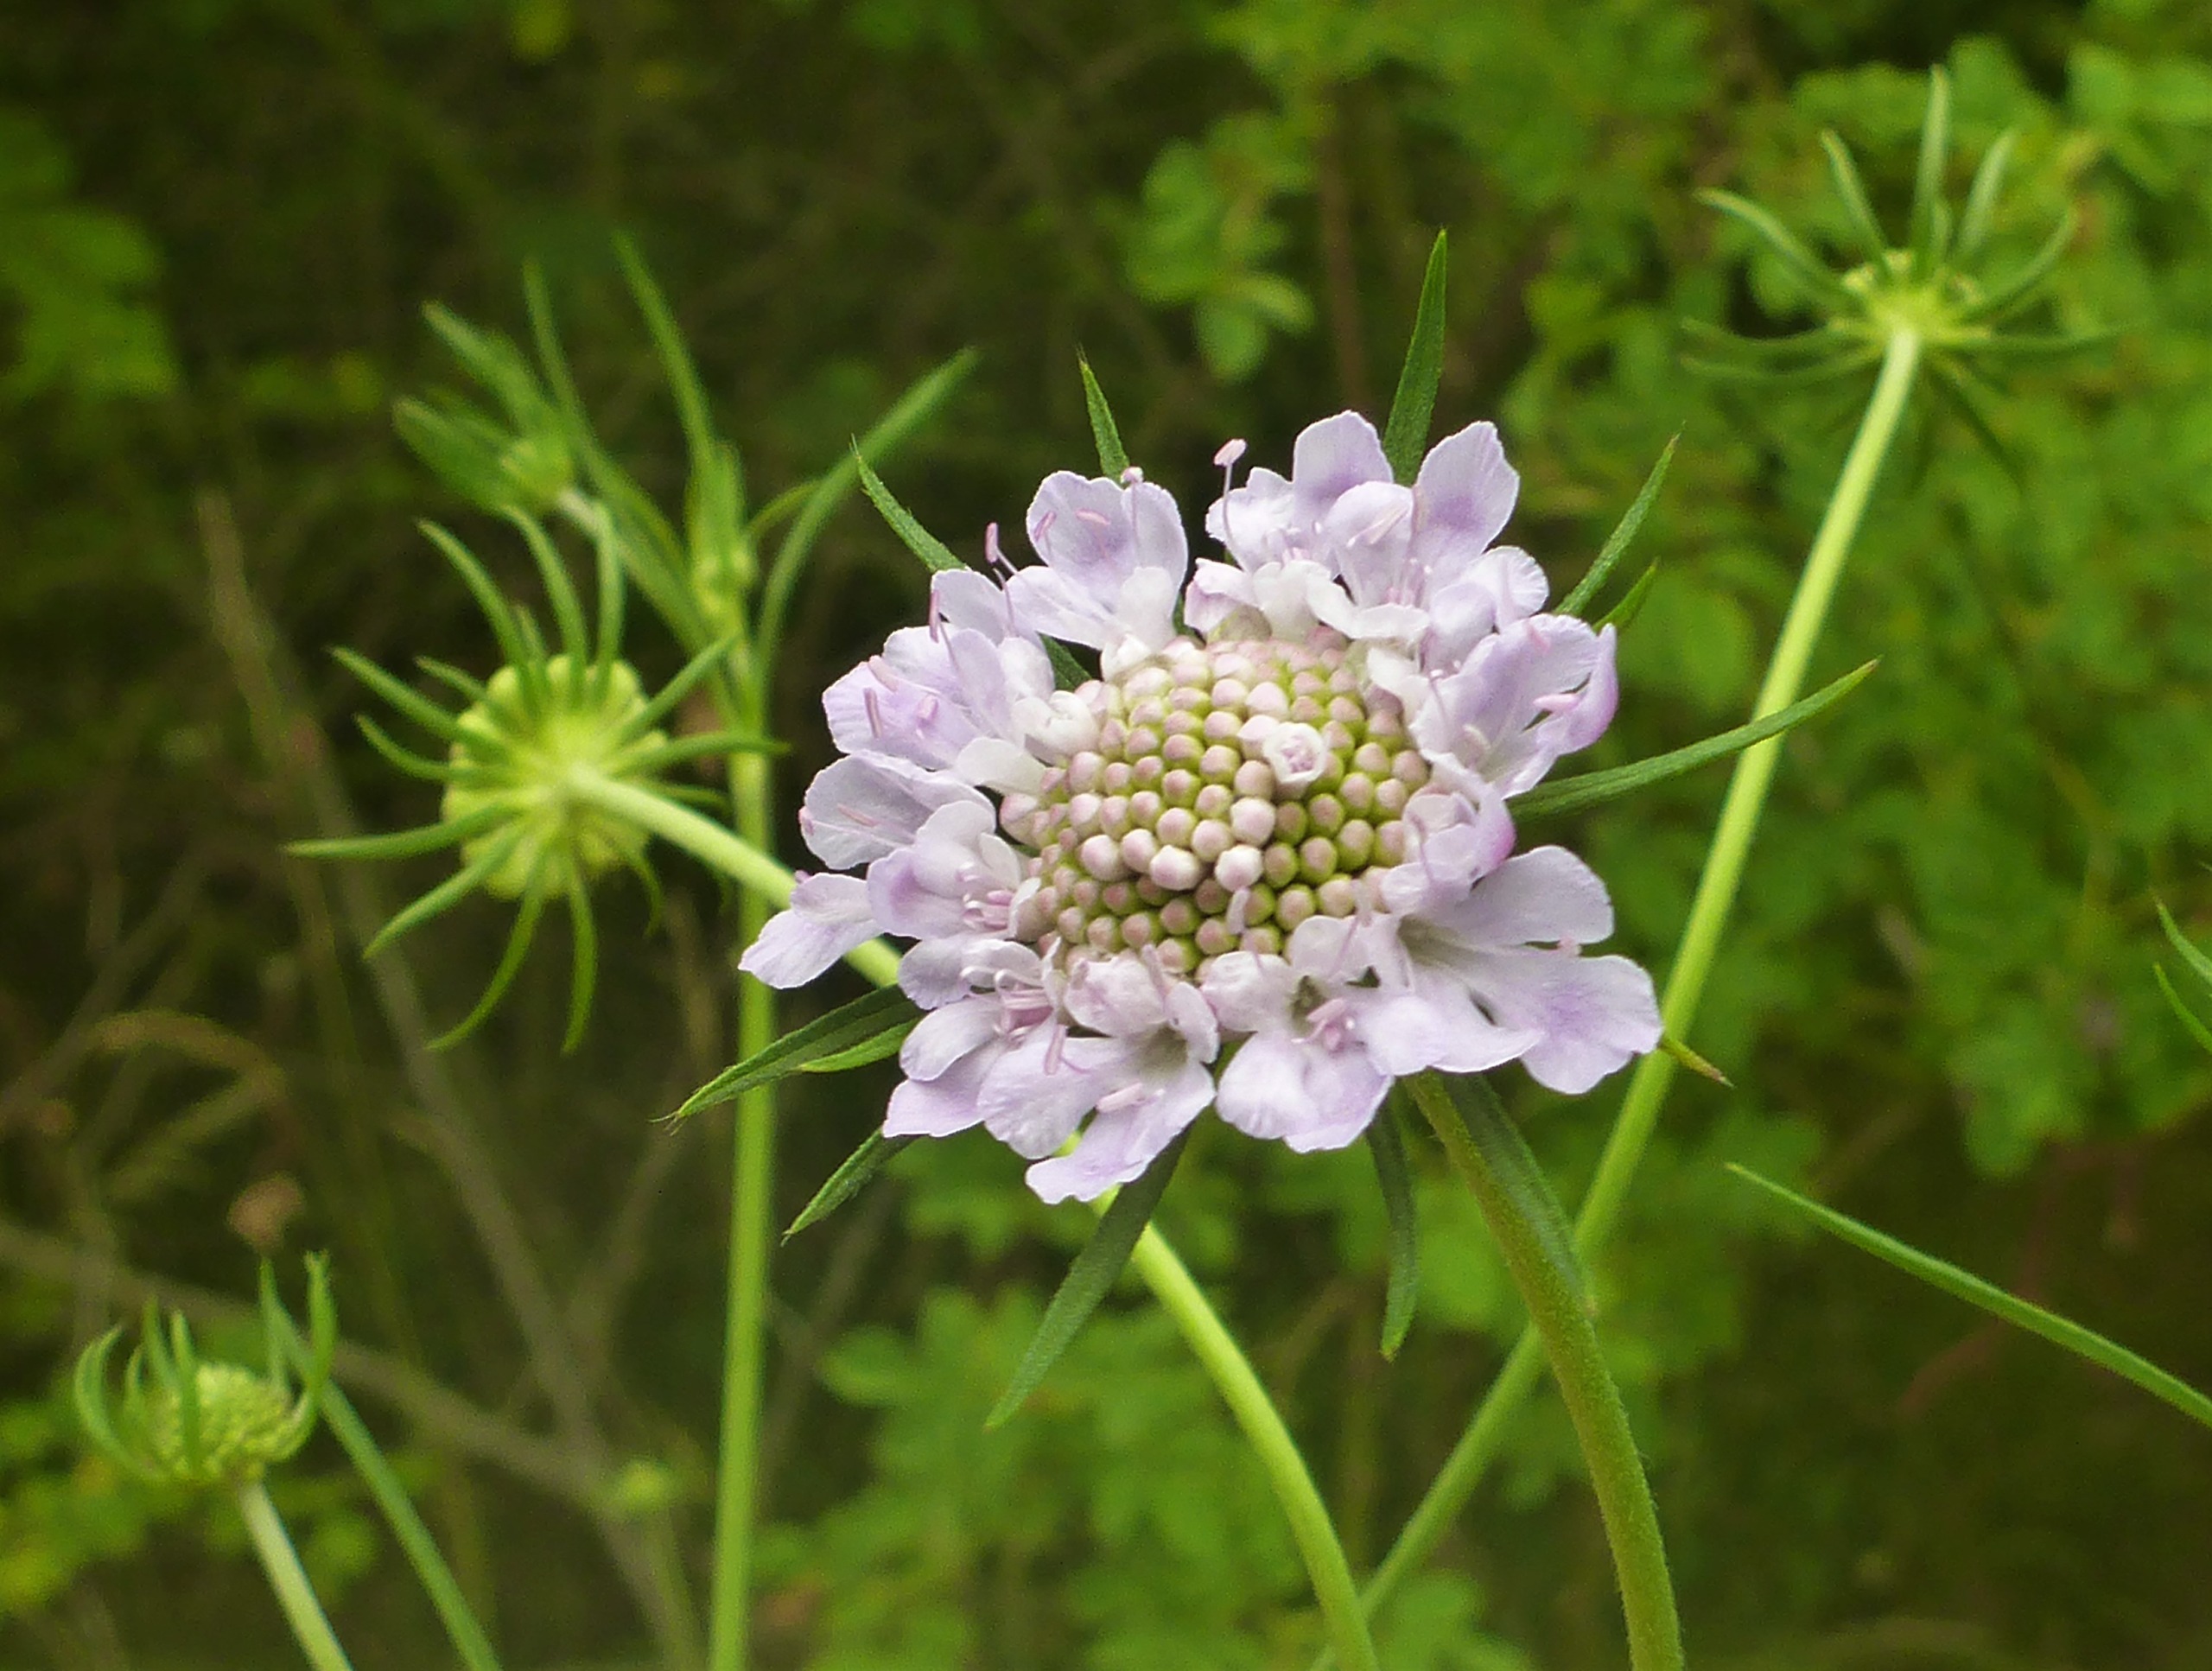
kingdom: Plantae
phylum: Tracheophyta
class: Magnoliopsida
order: Dipsacales
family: Caprifoliaceae
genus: Scabiosa
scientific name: Scabiosa columbaria
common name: Due-skabiose
